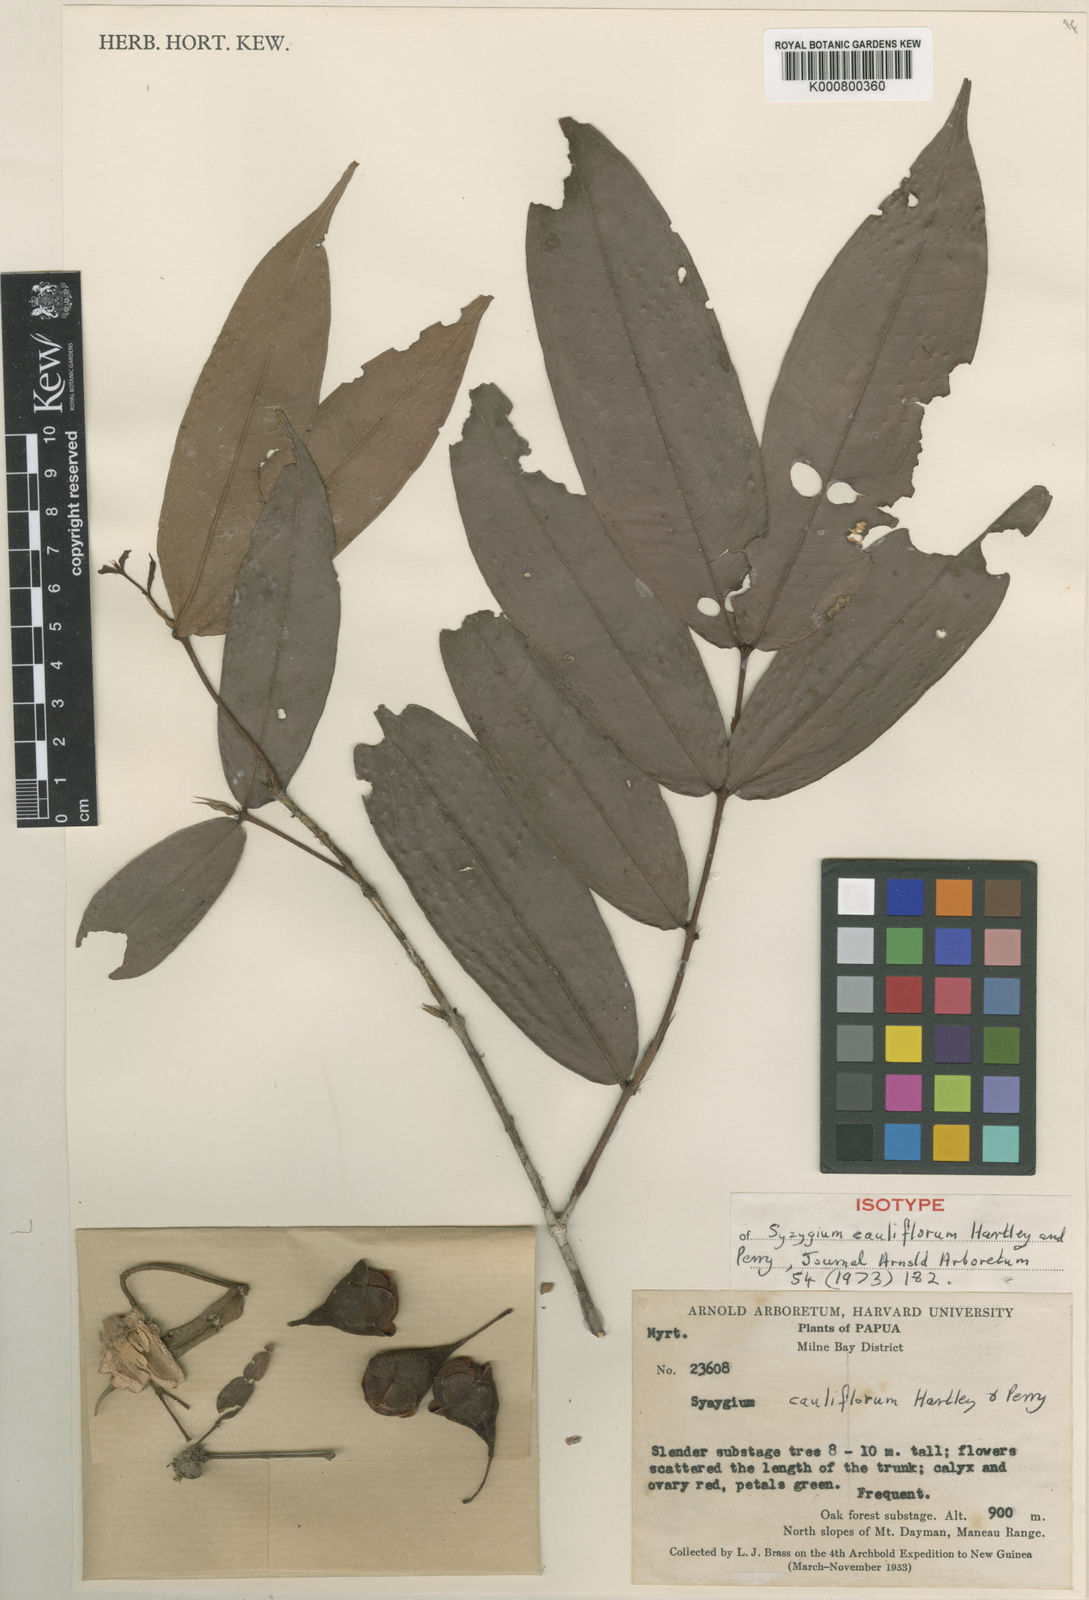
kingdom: Plantae
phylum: Tracheophyta
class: Magnoliopsida
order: Myrtales
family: Myrtaceae
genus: Syzygium
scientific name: Syzygium cauliflorum
